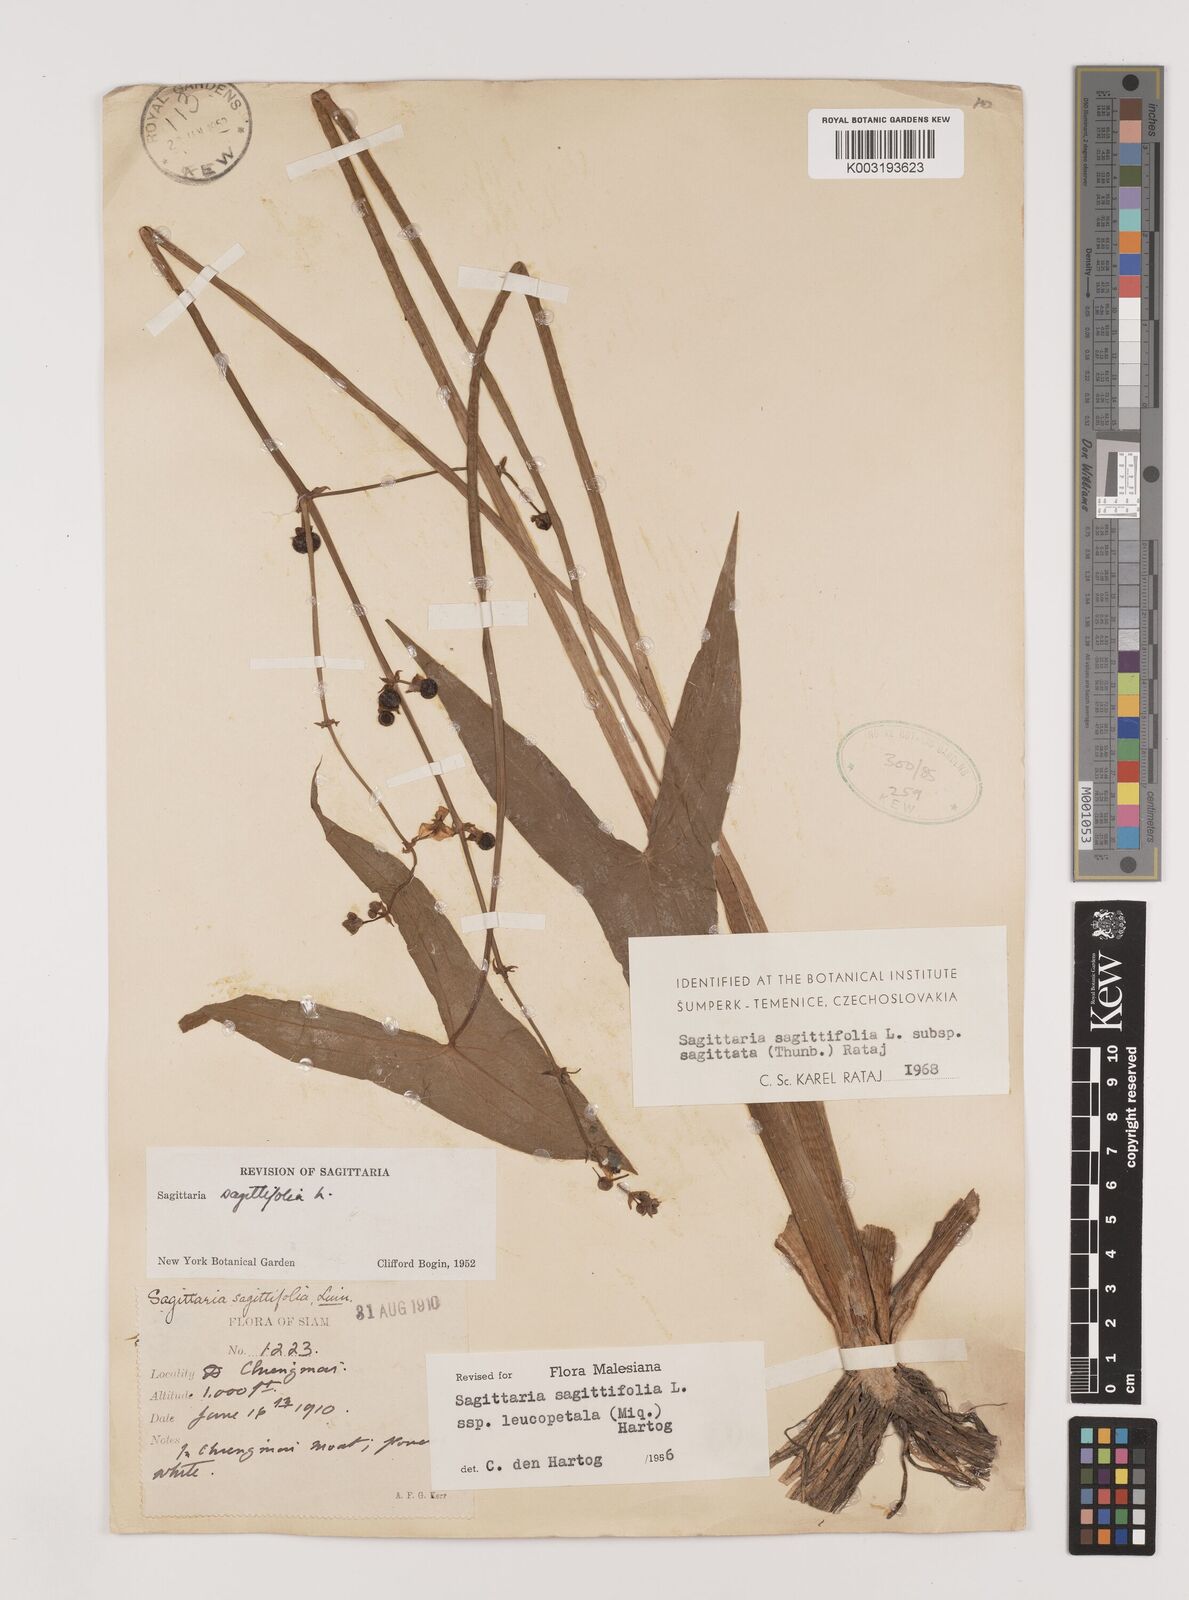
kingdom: Plantae
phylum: Tracheophyta
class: Liliopsida
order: Alismatales
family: Alismataceae
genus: Sagittaria
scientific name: Sagittaria sagittifolia
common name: Arrowhead
